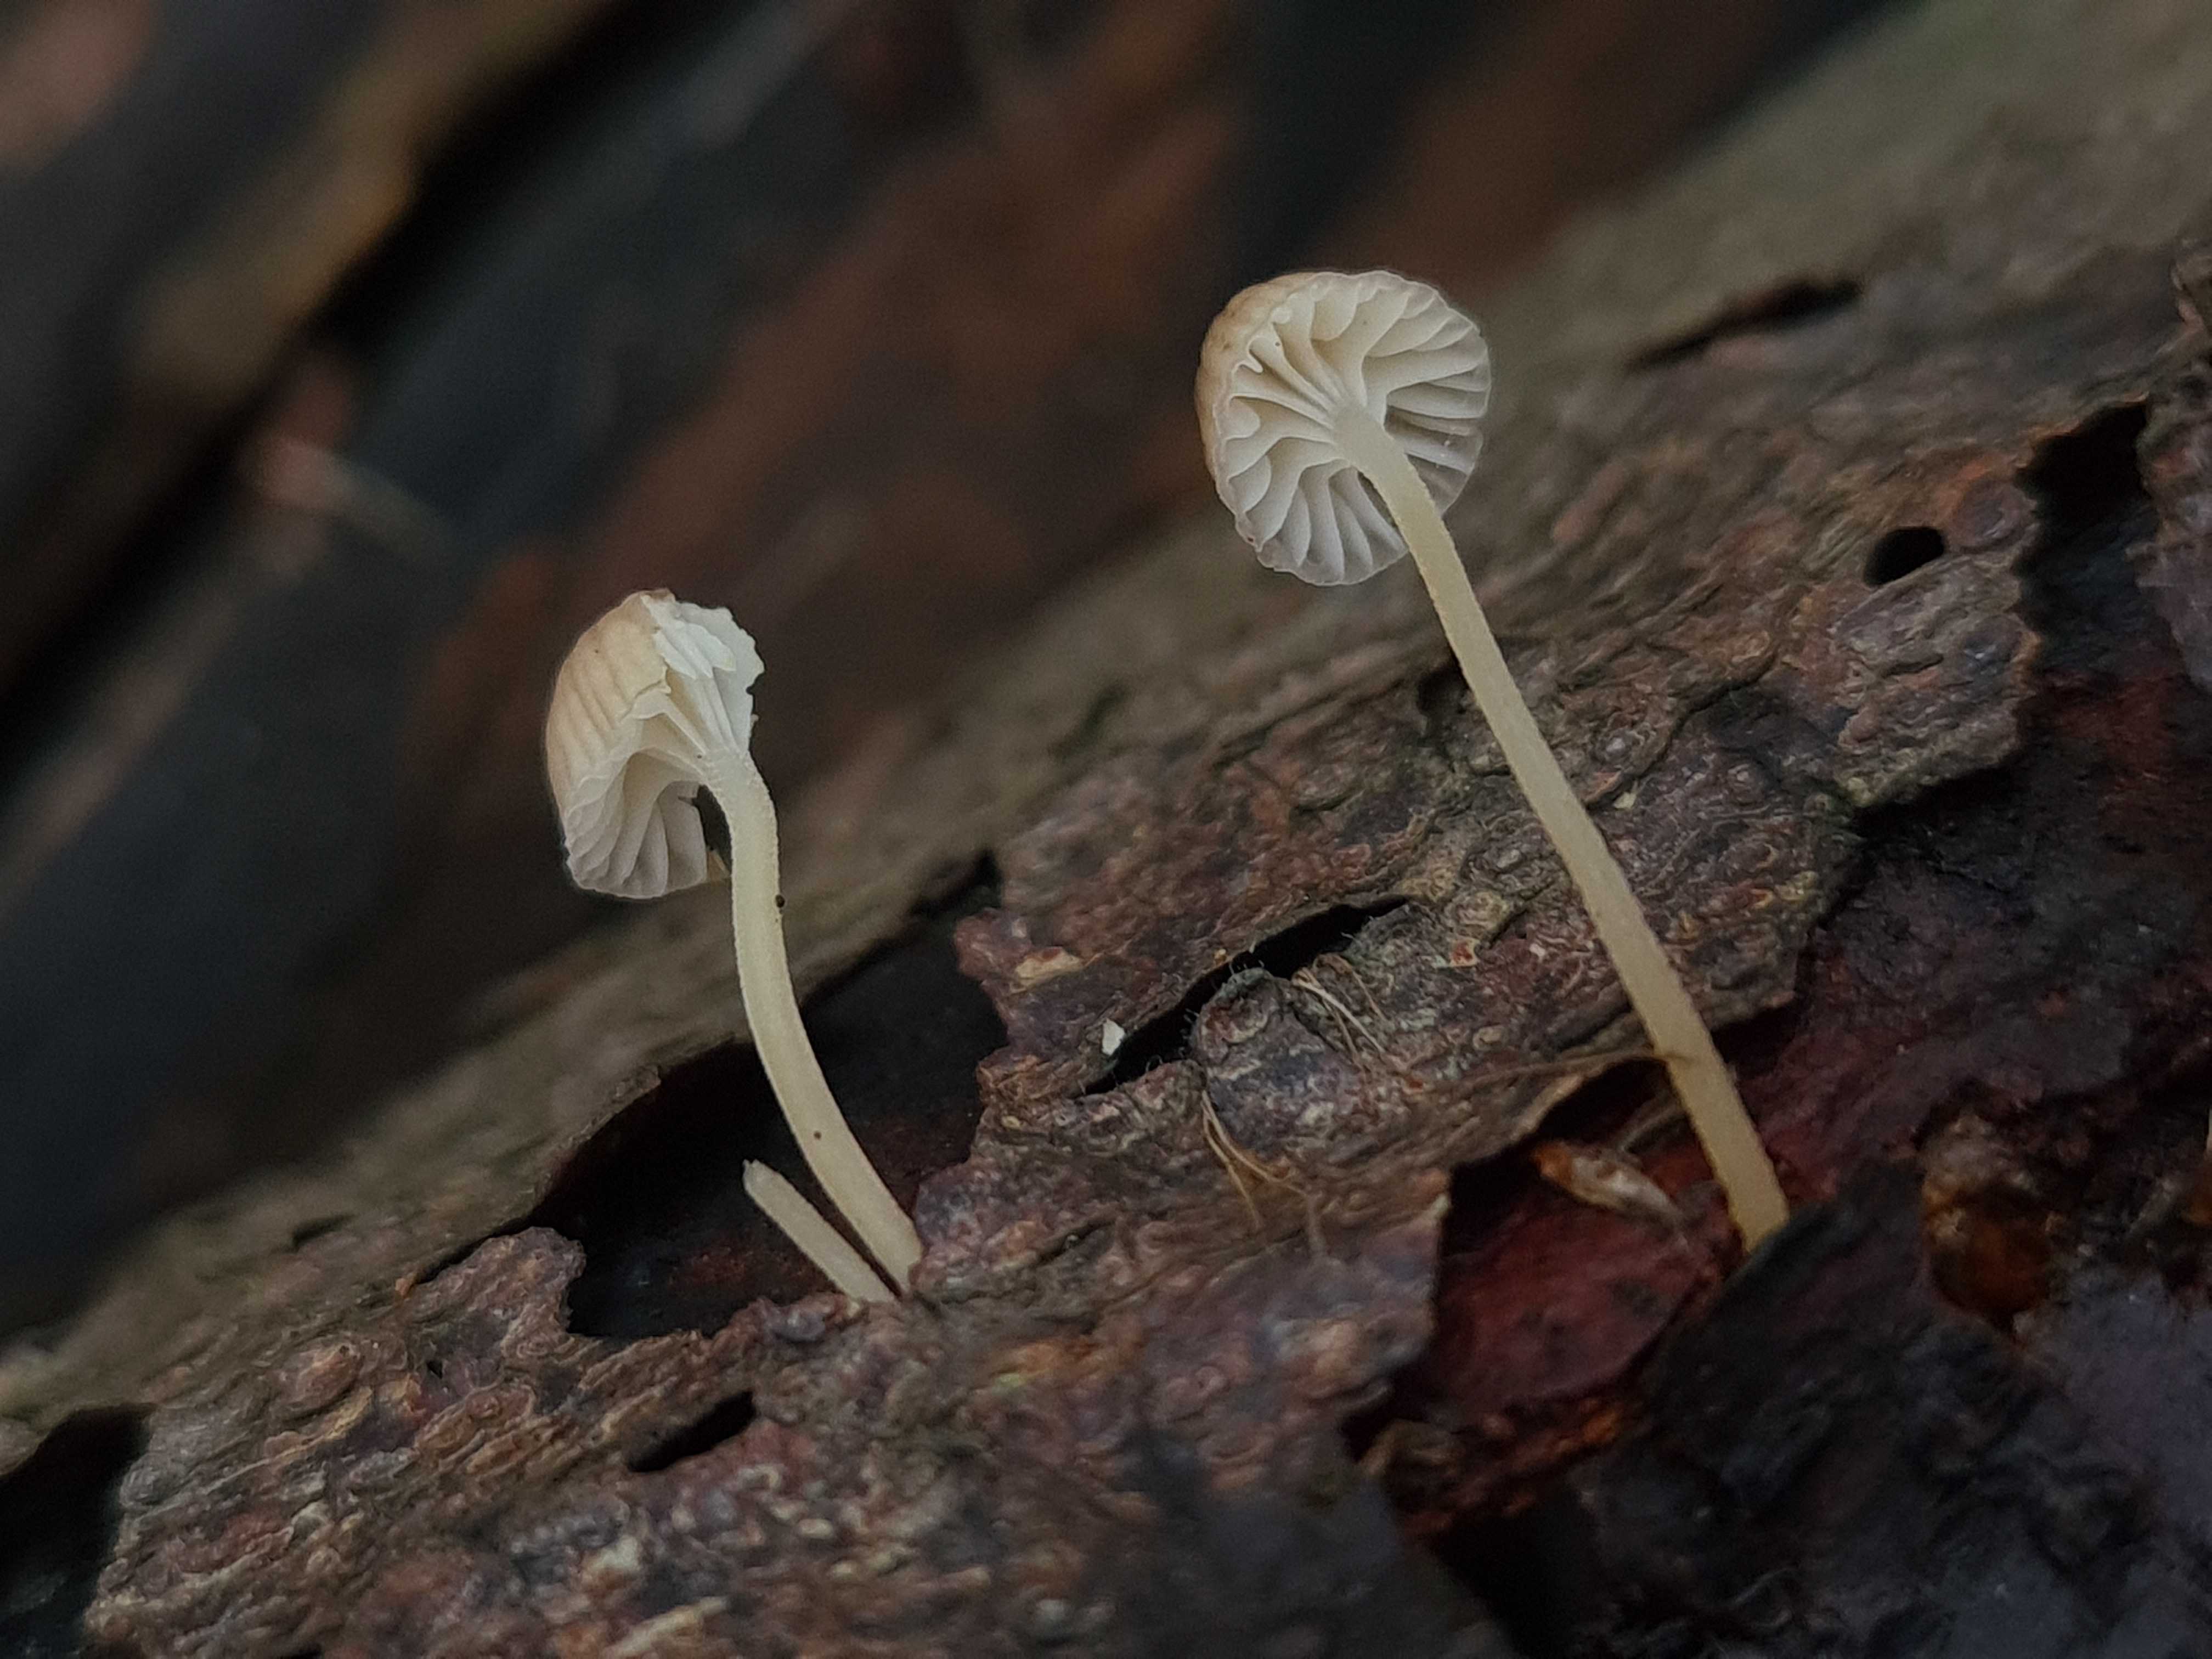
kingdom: Fungi
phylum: Basidiomycota
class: Agaricomycetes
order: Agaricales
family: Porotheleaceae
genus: Phloeomana
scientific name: Phloeomana speirea
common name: kvist-huesvamp
